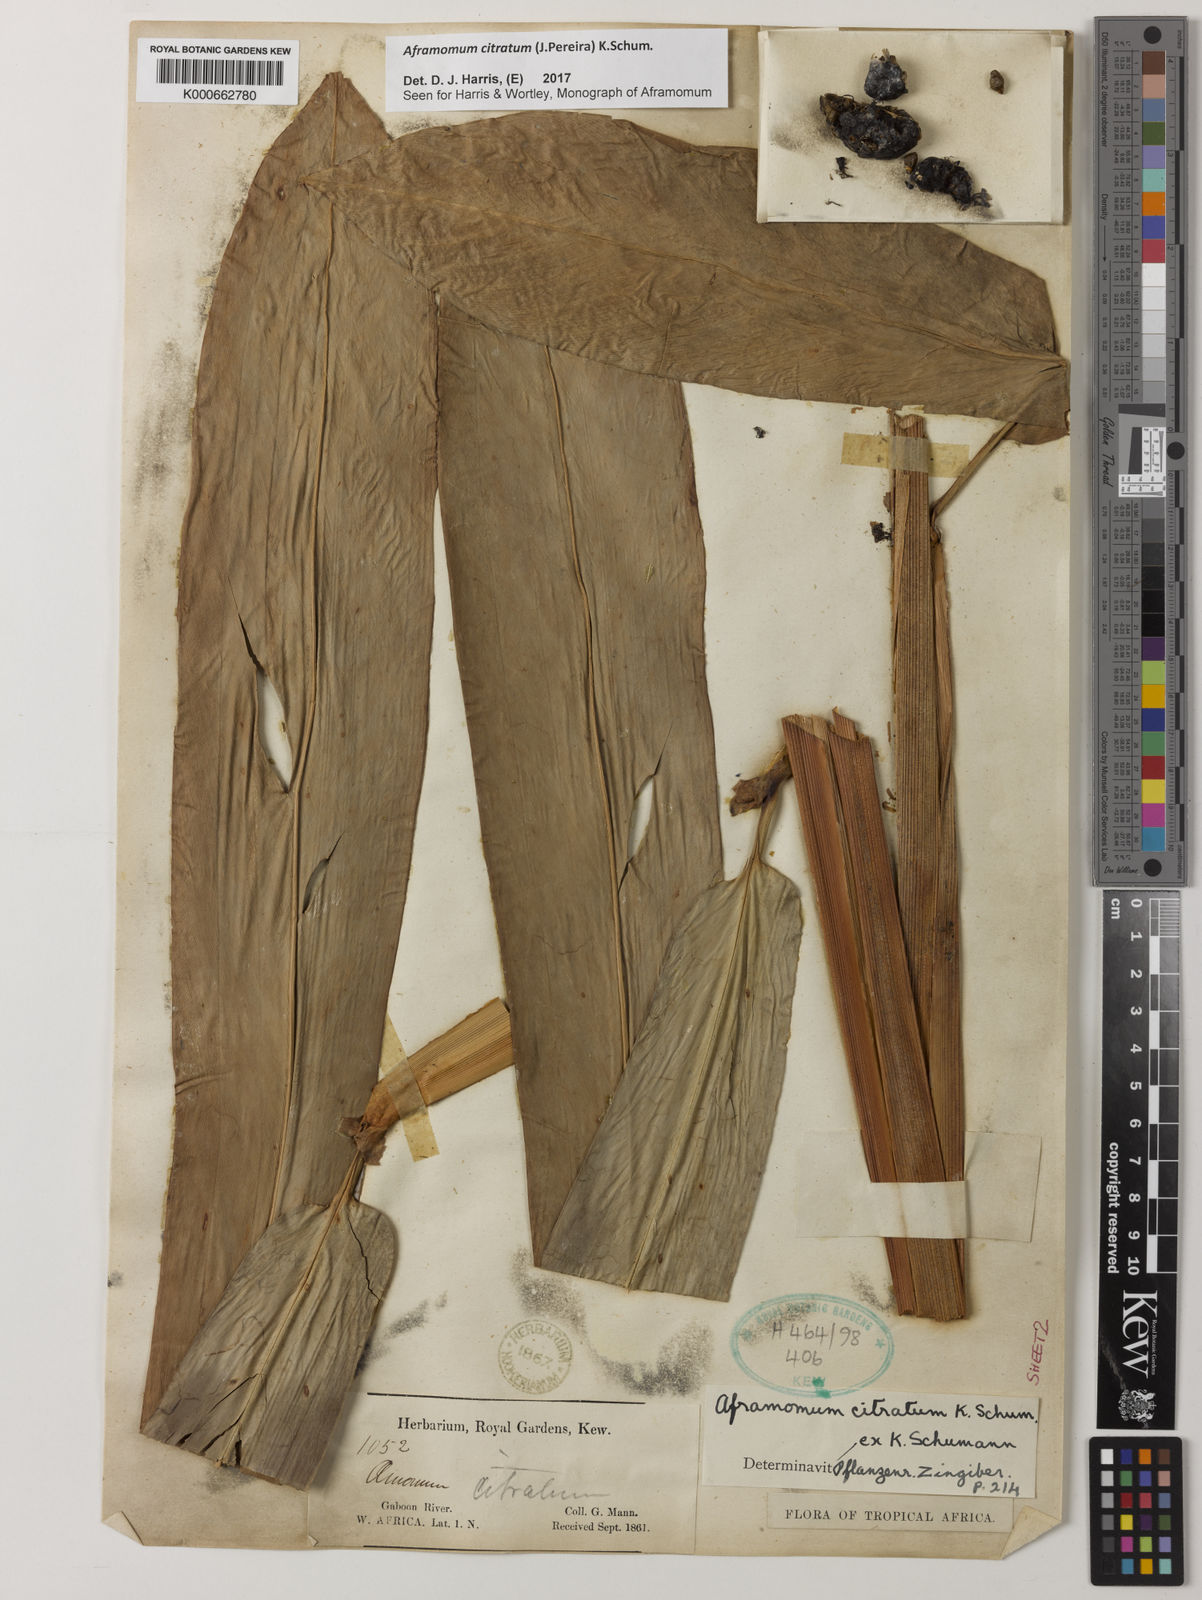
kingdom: Plantae
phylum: Tracheophyta
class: Liliopsida
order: Zingiberales
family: Zingiberaceae
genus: Aframomum
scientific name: Aframomum citratum
